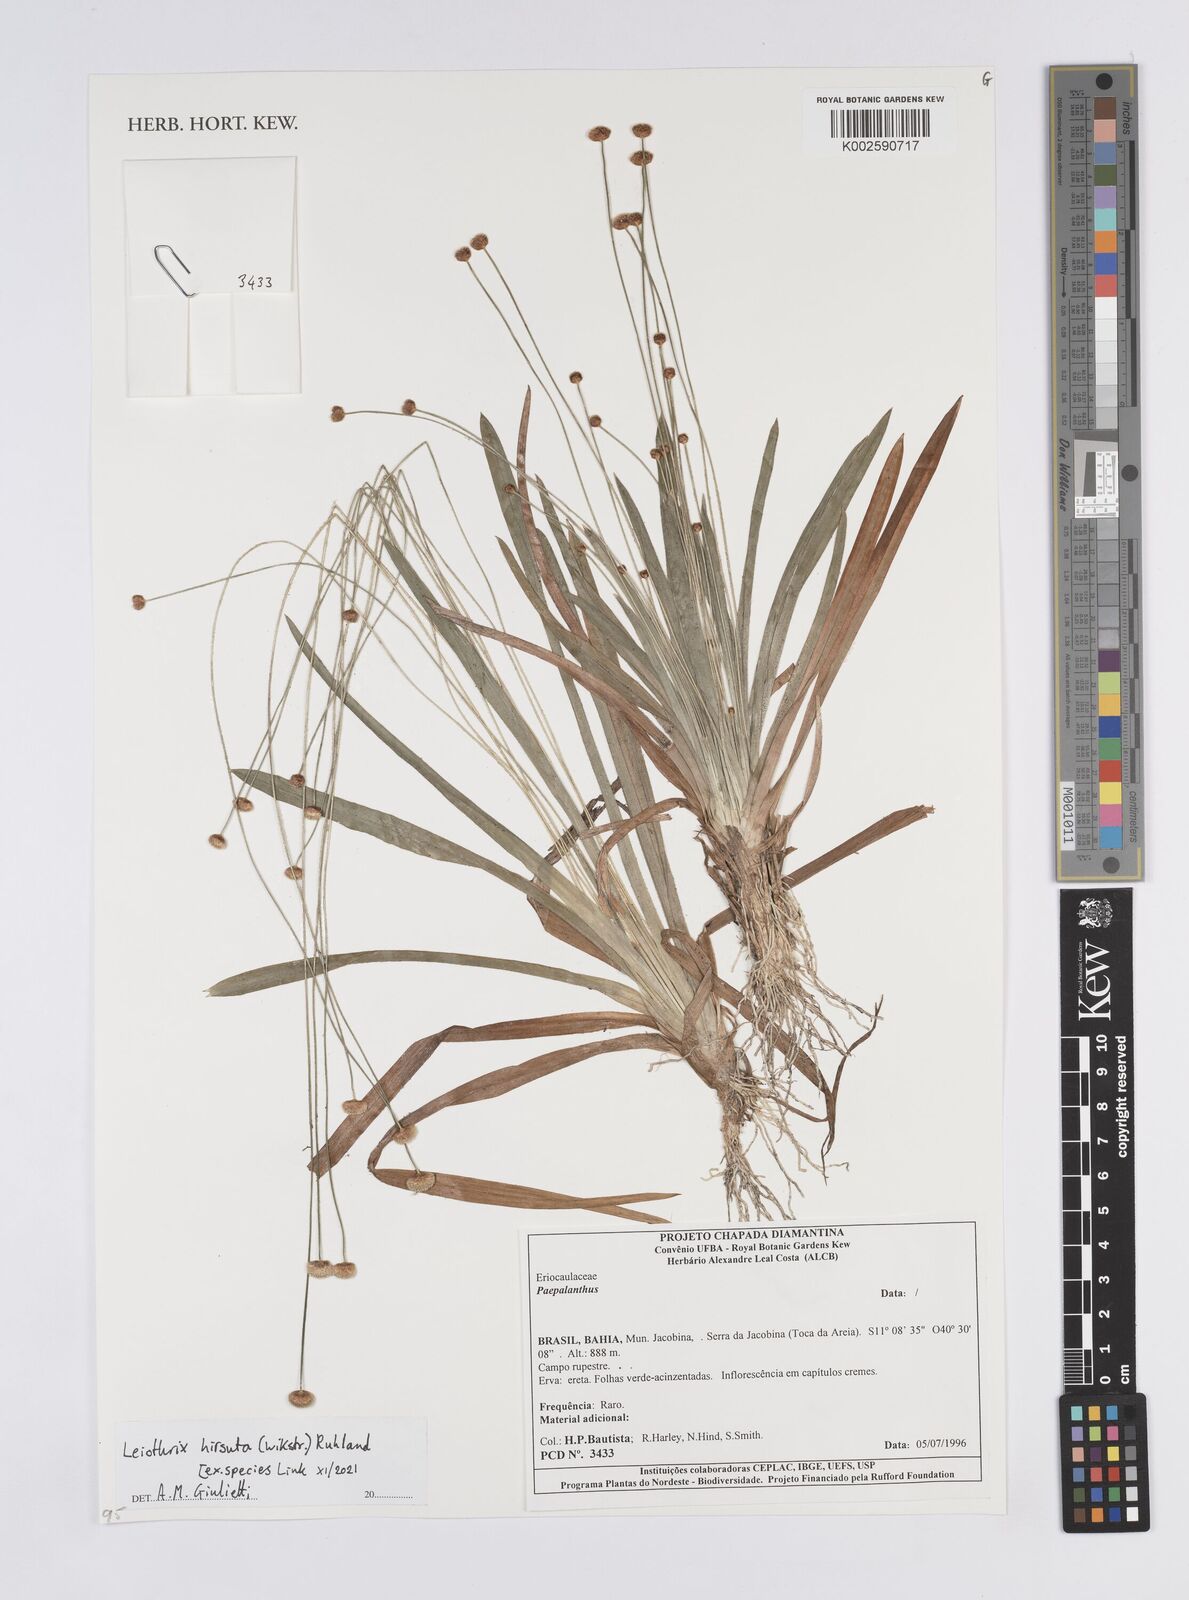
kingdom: Plantae
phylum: Tracheophyta
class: Liliopsida
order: Poales
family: Eriocaulaceae
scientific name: Eriocaulaceae
